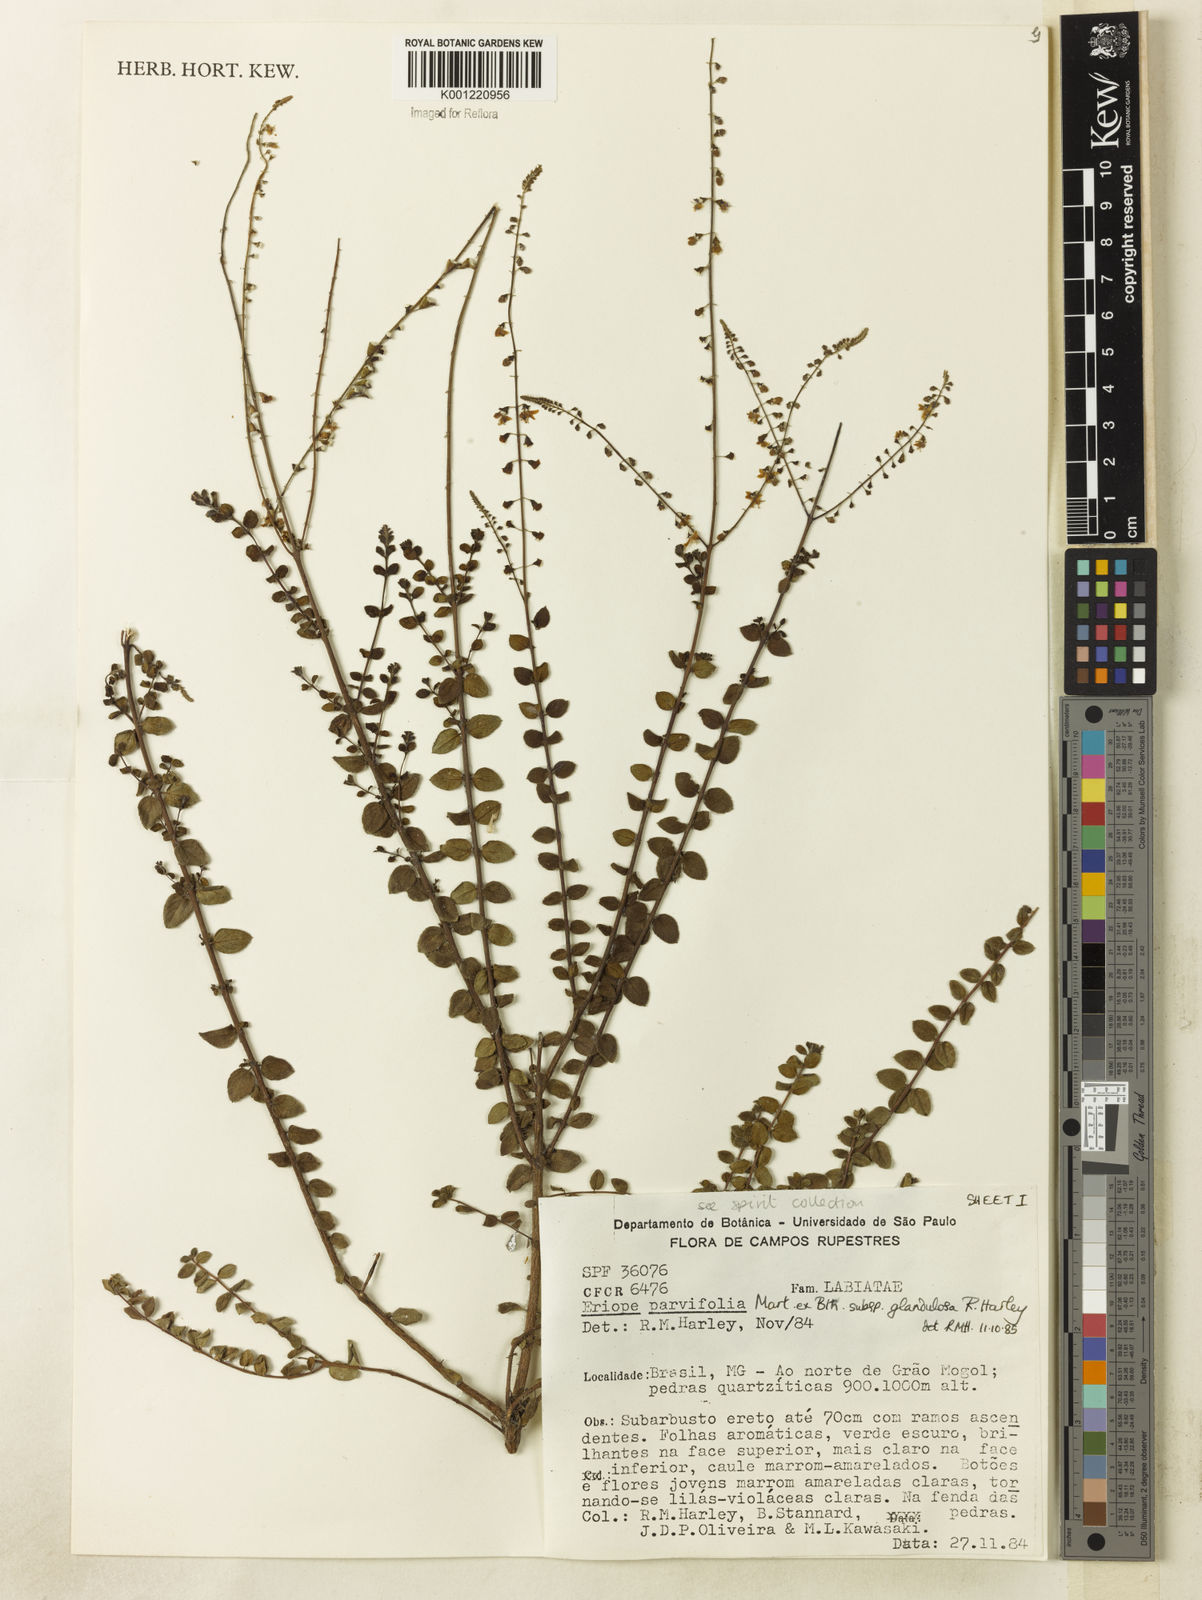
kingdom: Plantae
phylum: Tracheophyta
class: Magnoliopsida
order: Lamiales
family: Lamiaceae
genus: Eriope
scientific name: Eriope glandulosa
